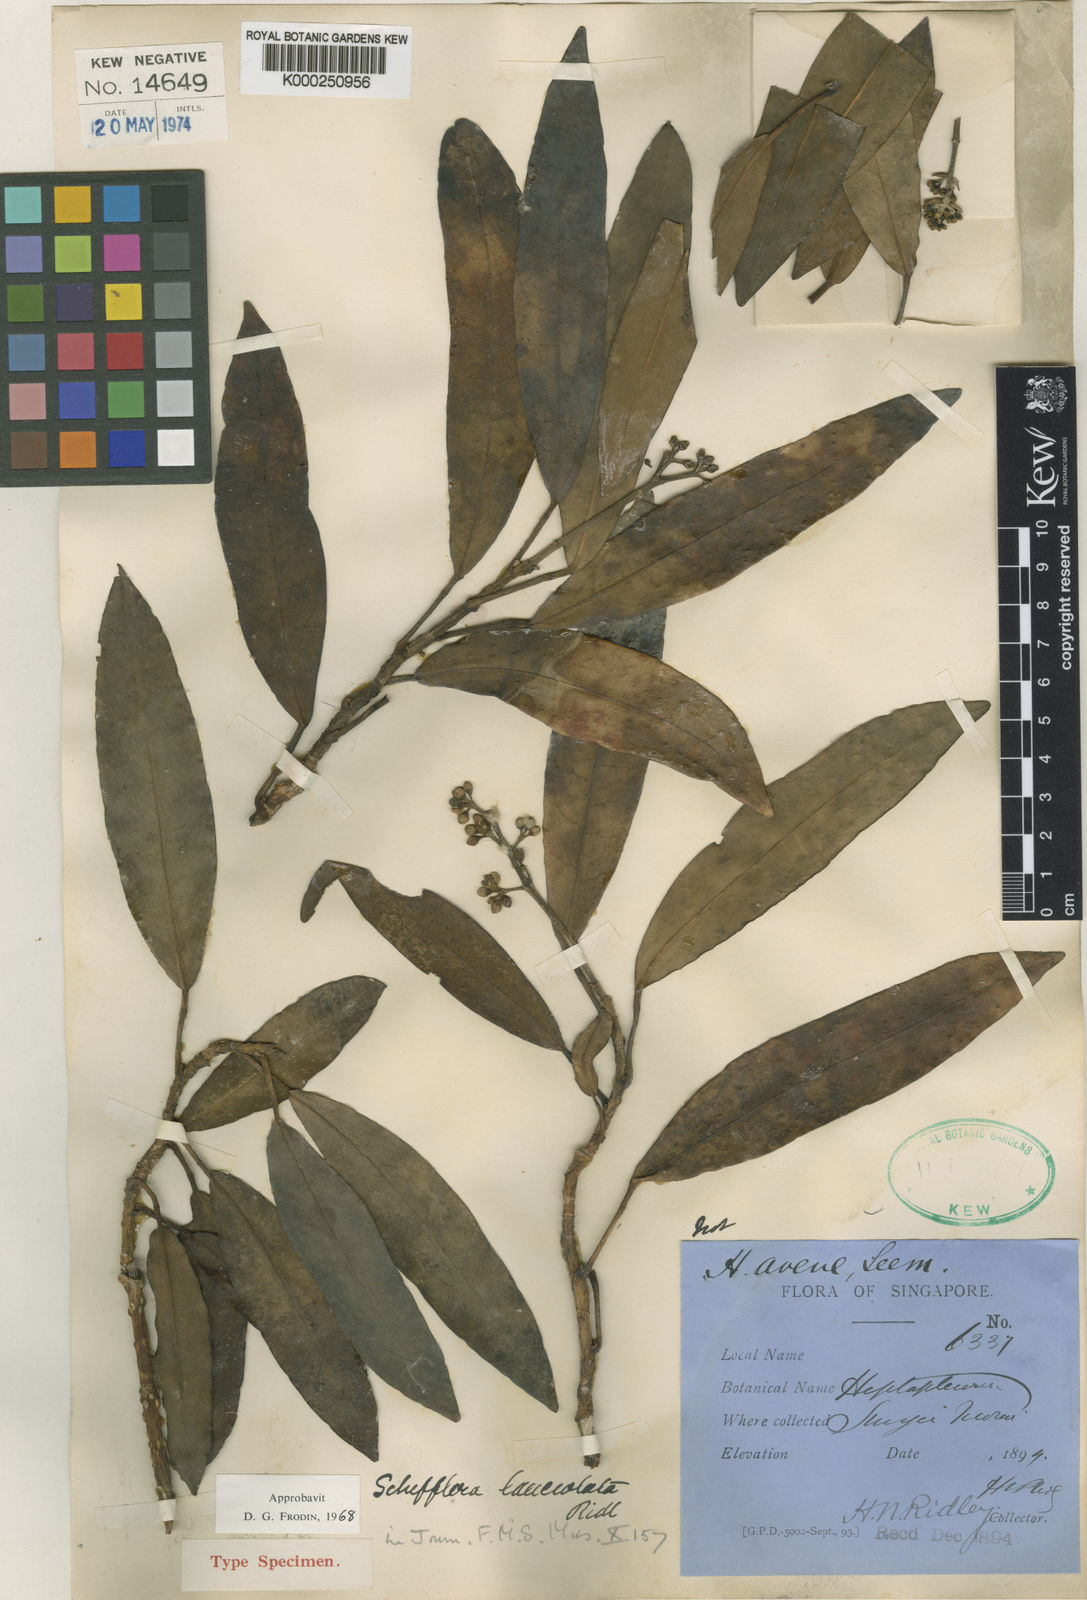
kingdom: Plantae
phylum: Tracheophyta
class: Magnoliopsida
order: Apiales
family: Araliaceae
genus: Heptapleurum
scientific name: Heptapleurum lanceolatum
